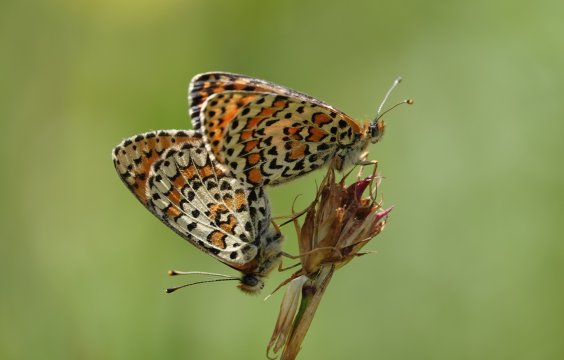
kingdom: Animalia
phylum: Arthropoda
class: Insecta
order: Lepidoptera
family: Nymphalidae
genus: Melitaea
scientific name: Melitaea trivia
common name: Lesser Spotted Fritillary
